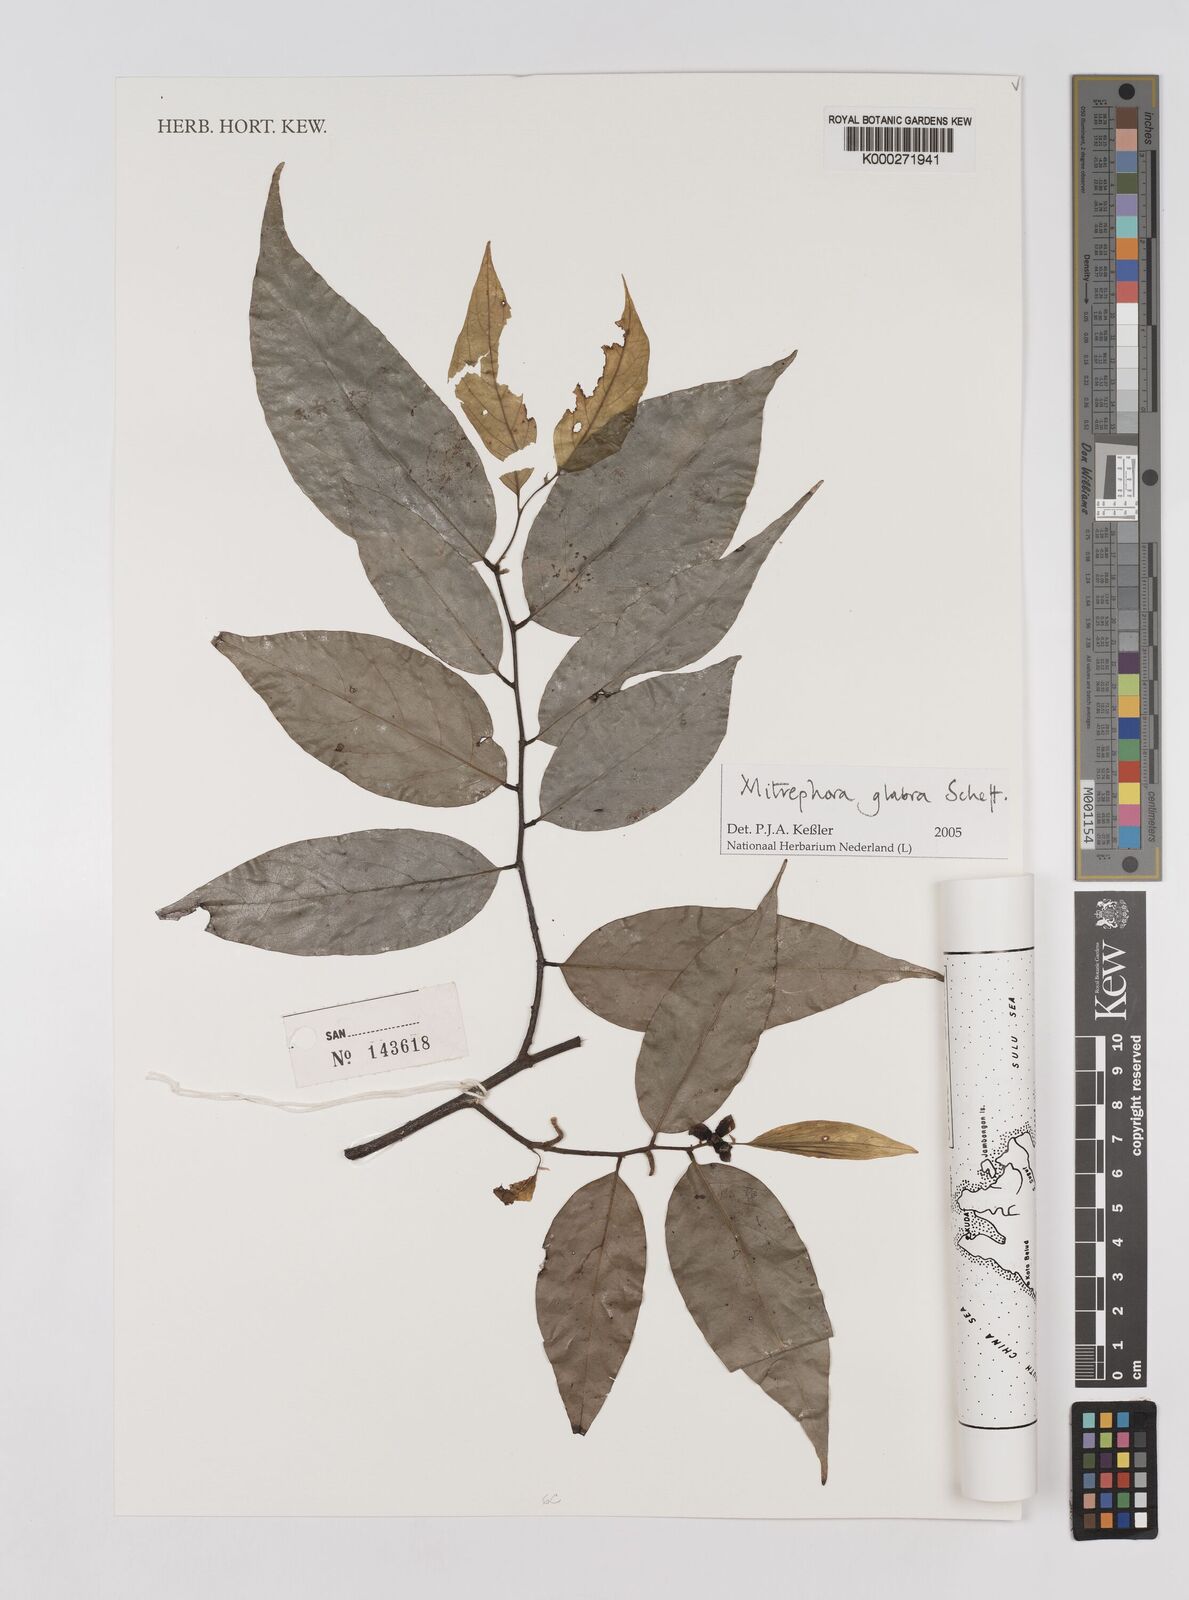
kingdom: Plantae
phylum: Tracheophyta
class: Magnoliopsida
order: Magnoliales
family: Annonaceae
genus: Mitrephora
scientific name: Mitrephora glabra
